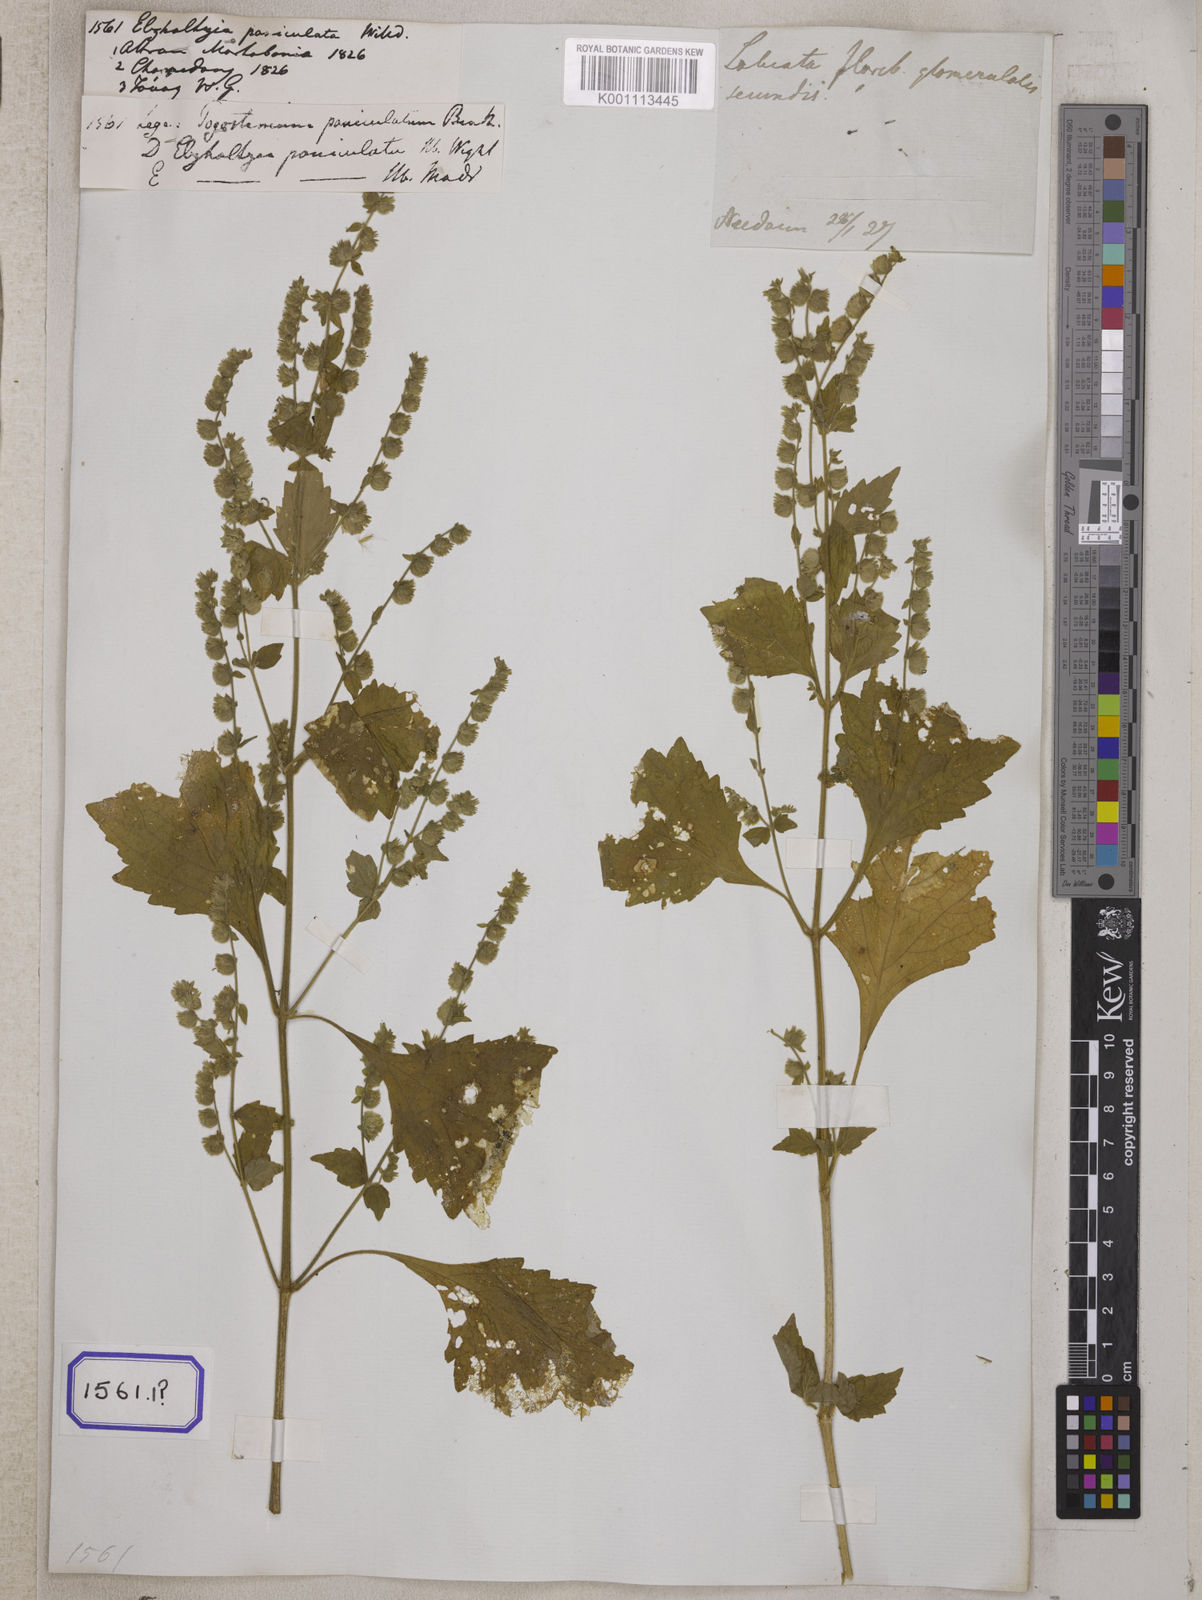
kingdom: Plantae
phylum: Tracheophyta
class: Magnoliopsida
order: Lamiales
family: Lamiaceae
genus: Pogostemon
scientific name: Pogostemon paniculatus
